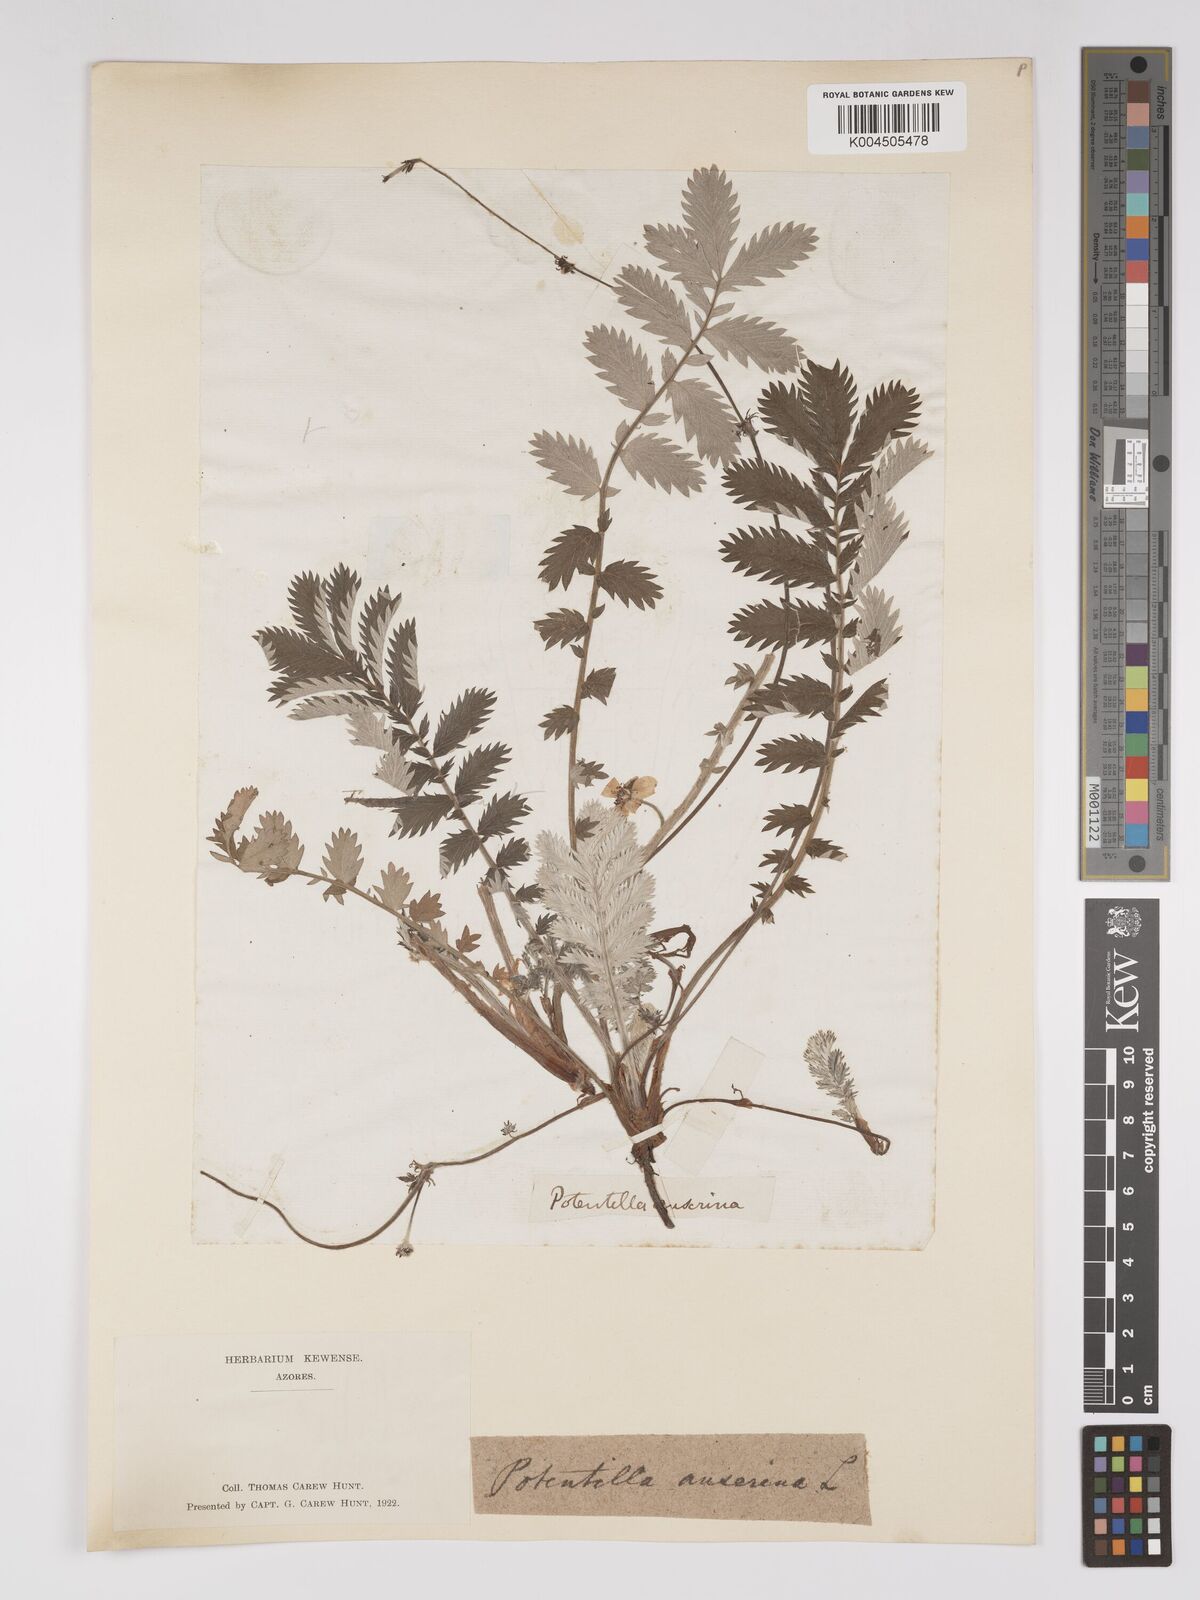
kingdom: Plantae
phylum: Tracheophyta
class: Magnoliopsida
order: Rosales
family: Rosaceae
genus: Potentilla
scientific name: Potentilla erecta
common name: Tormentil
